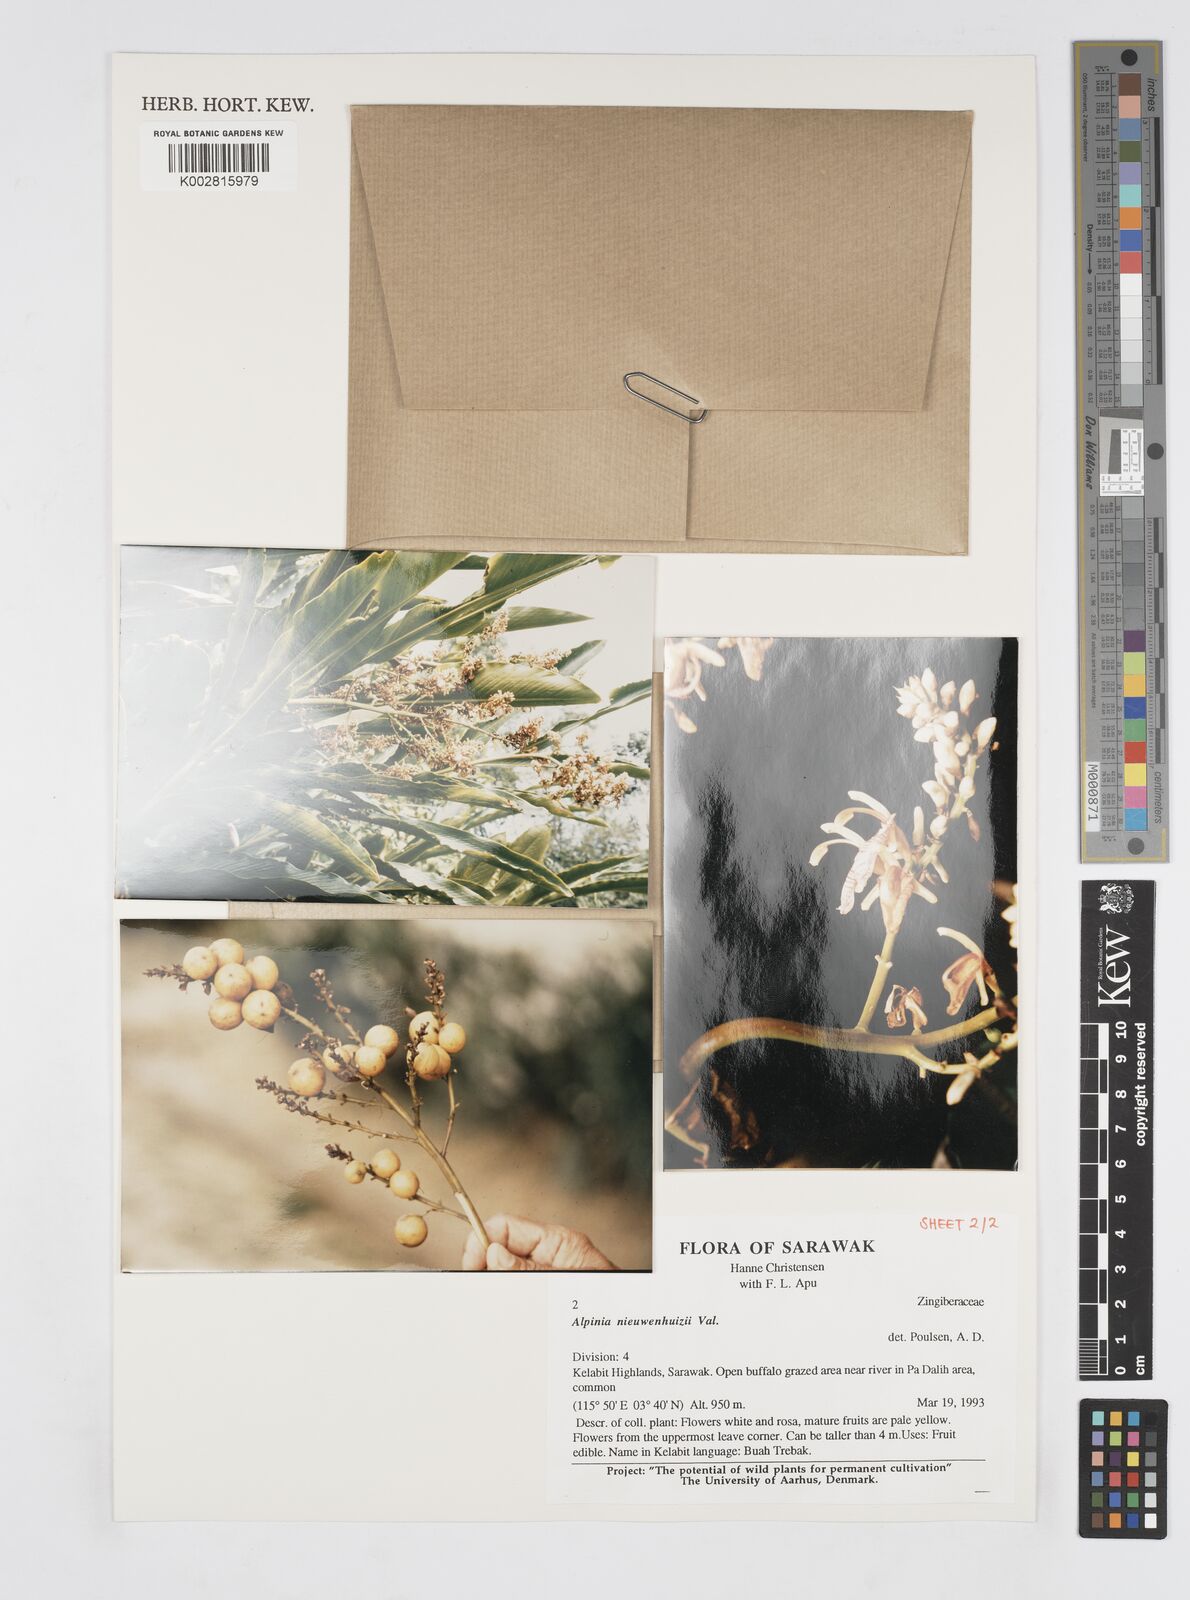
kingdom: Plantae
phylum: Tracheophyta
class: Liliopsida
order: Zingiberales
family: Zingiberaceae
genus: Alpinia
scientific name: Alpinia nieuwenhuizii
